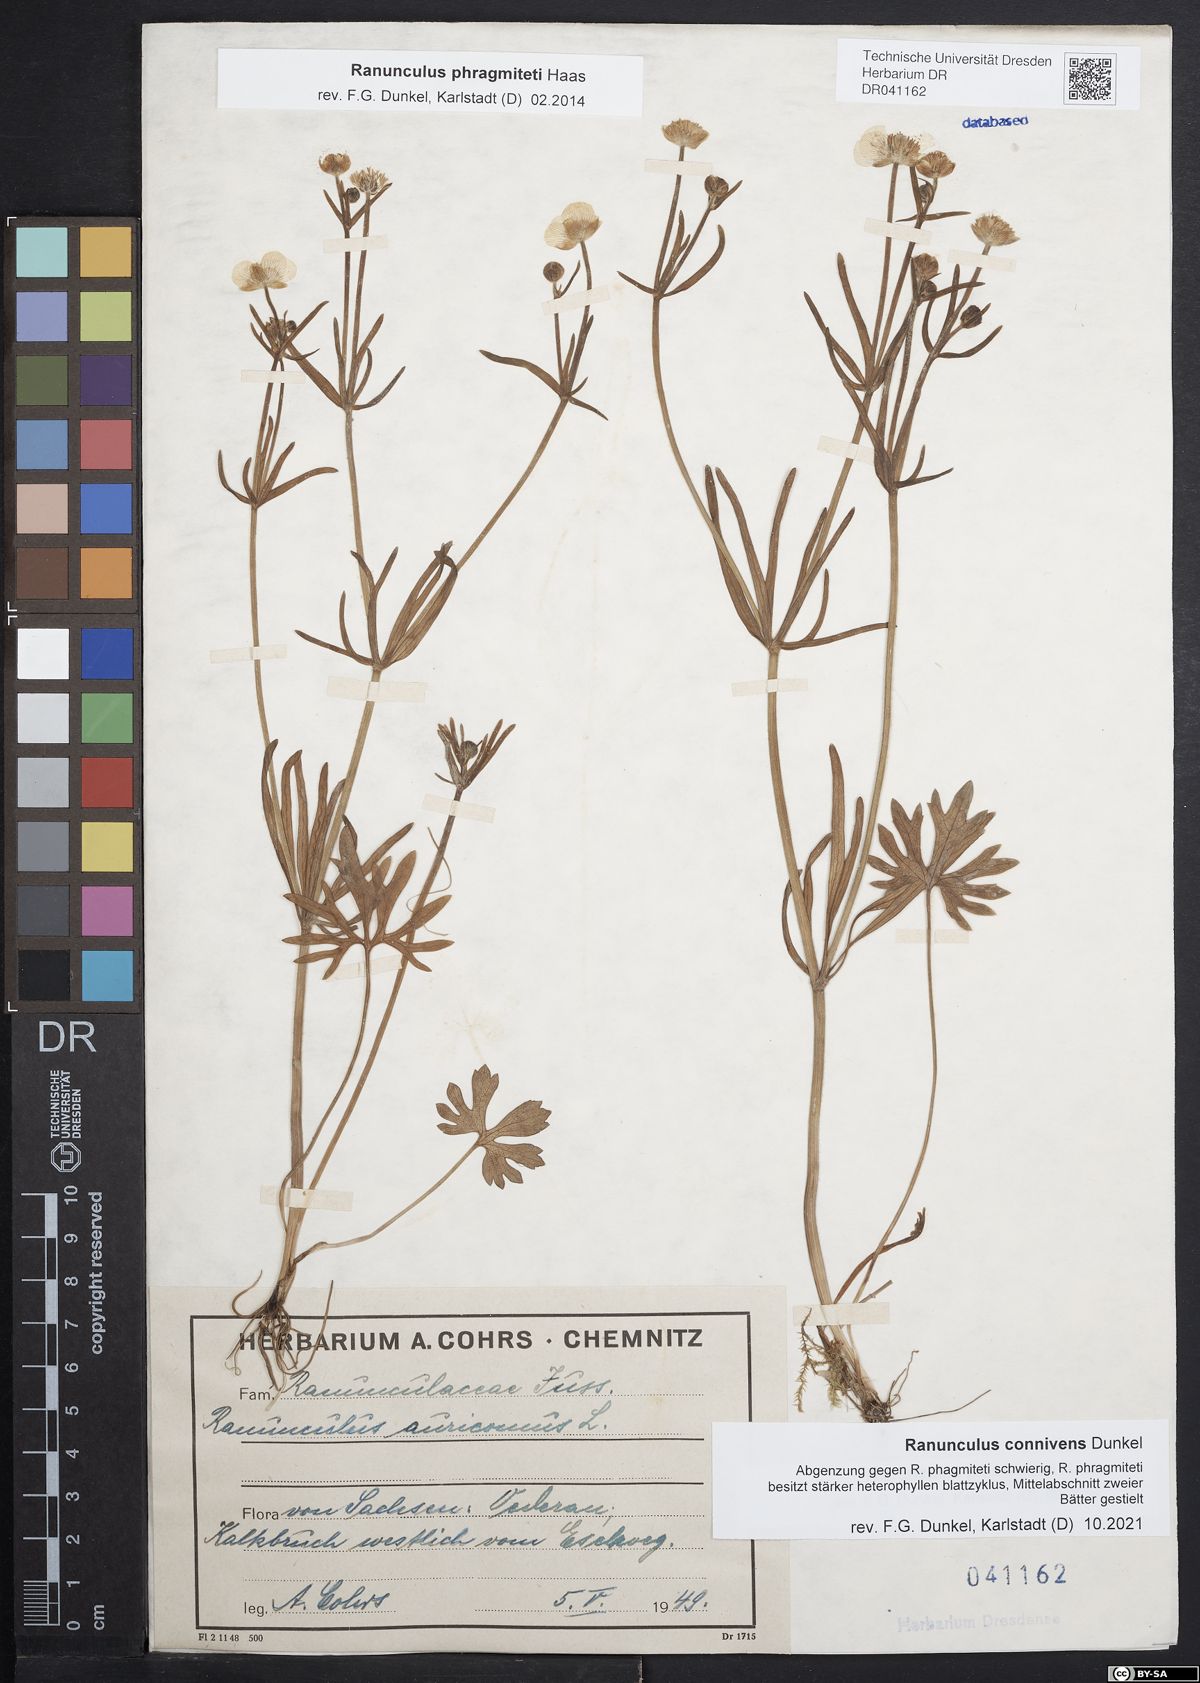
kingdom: Plantae
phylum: Tracheophyta
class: Magnoliopsida
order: Ranunculales
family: Ranunculaceae
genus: Ranunculus
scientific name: Ranunculus connivens
